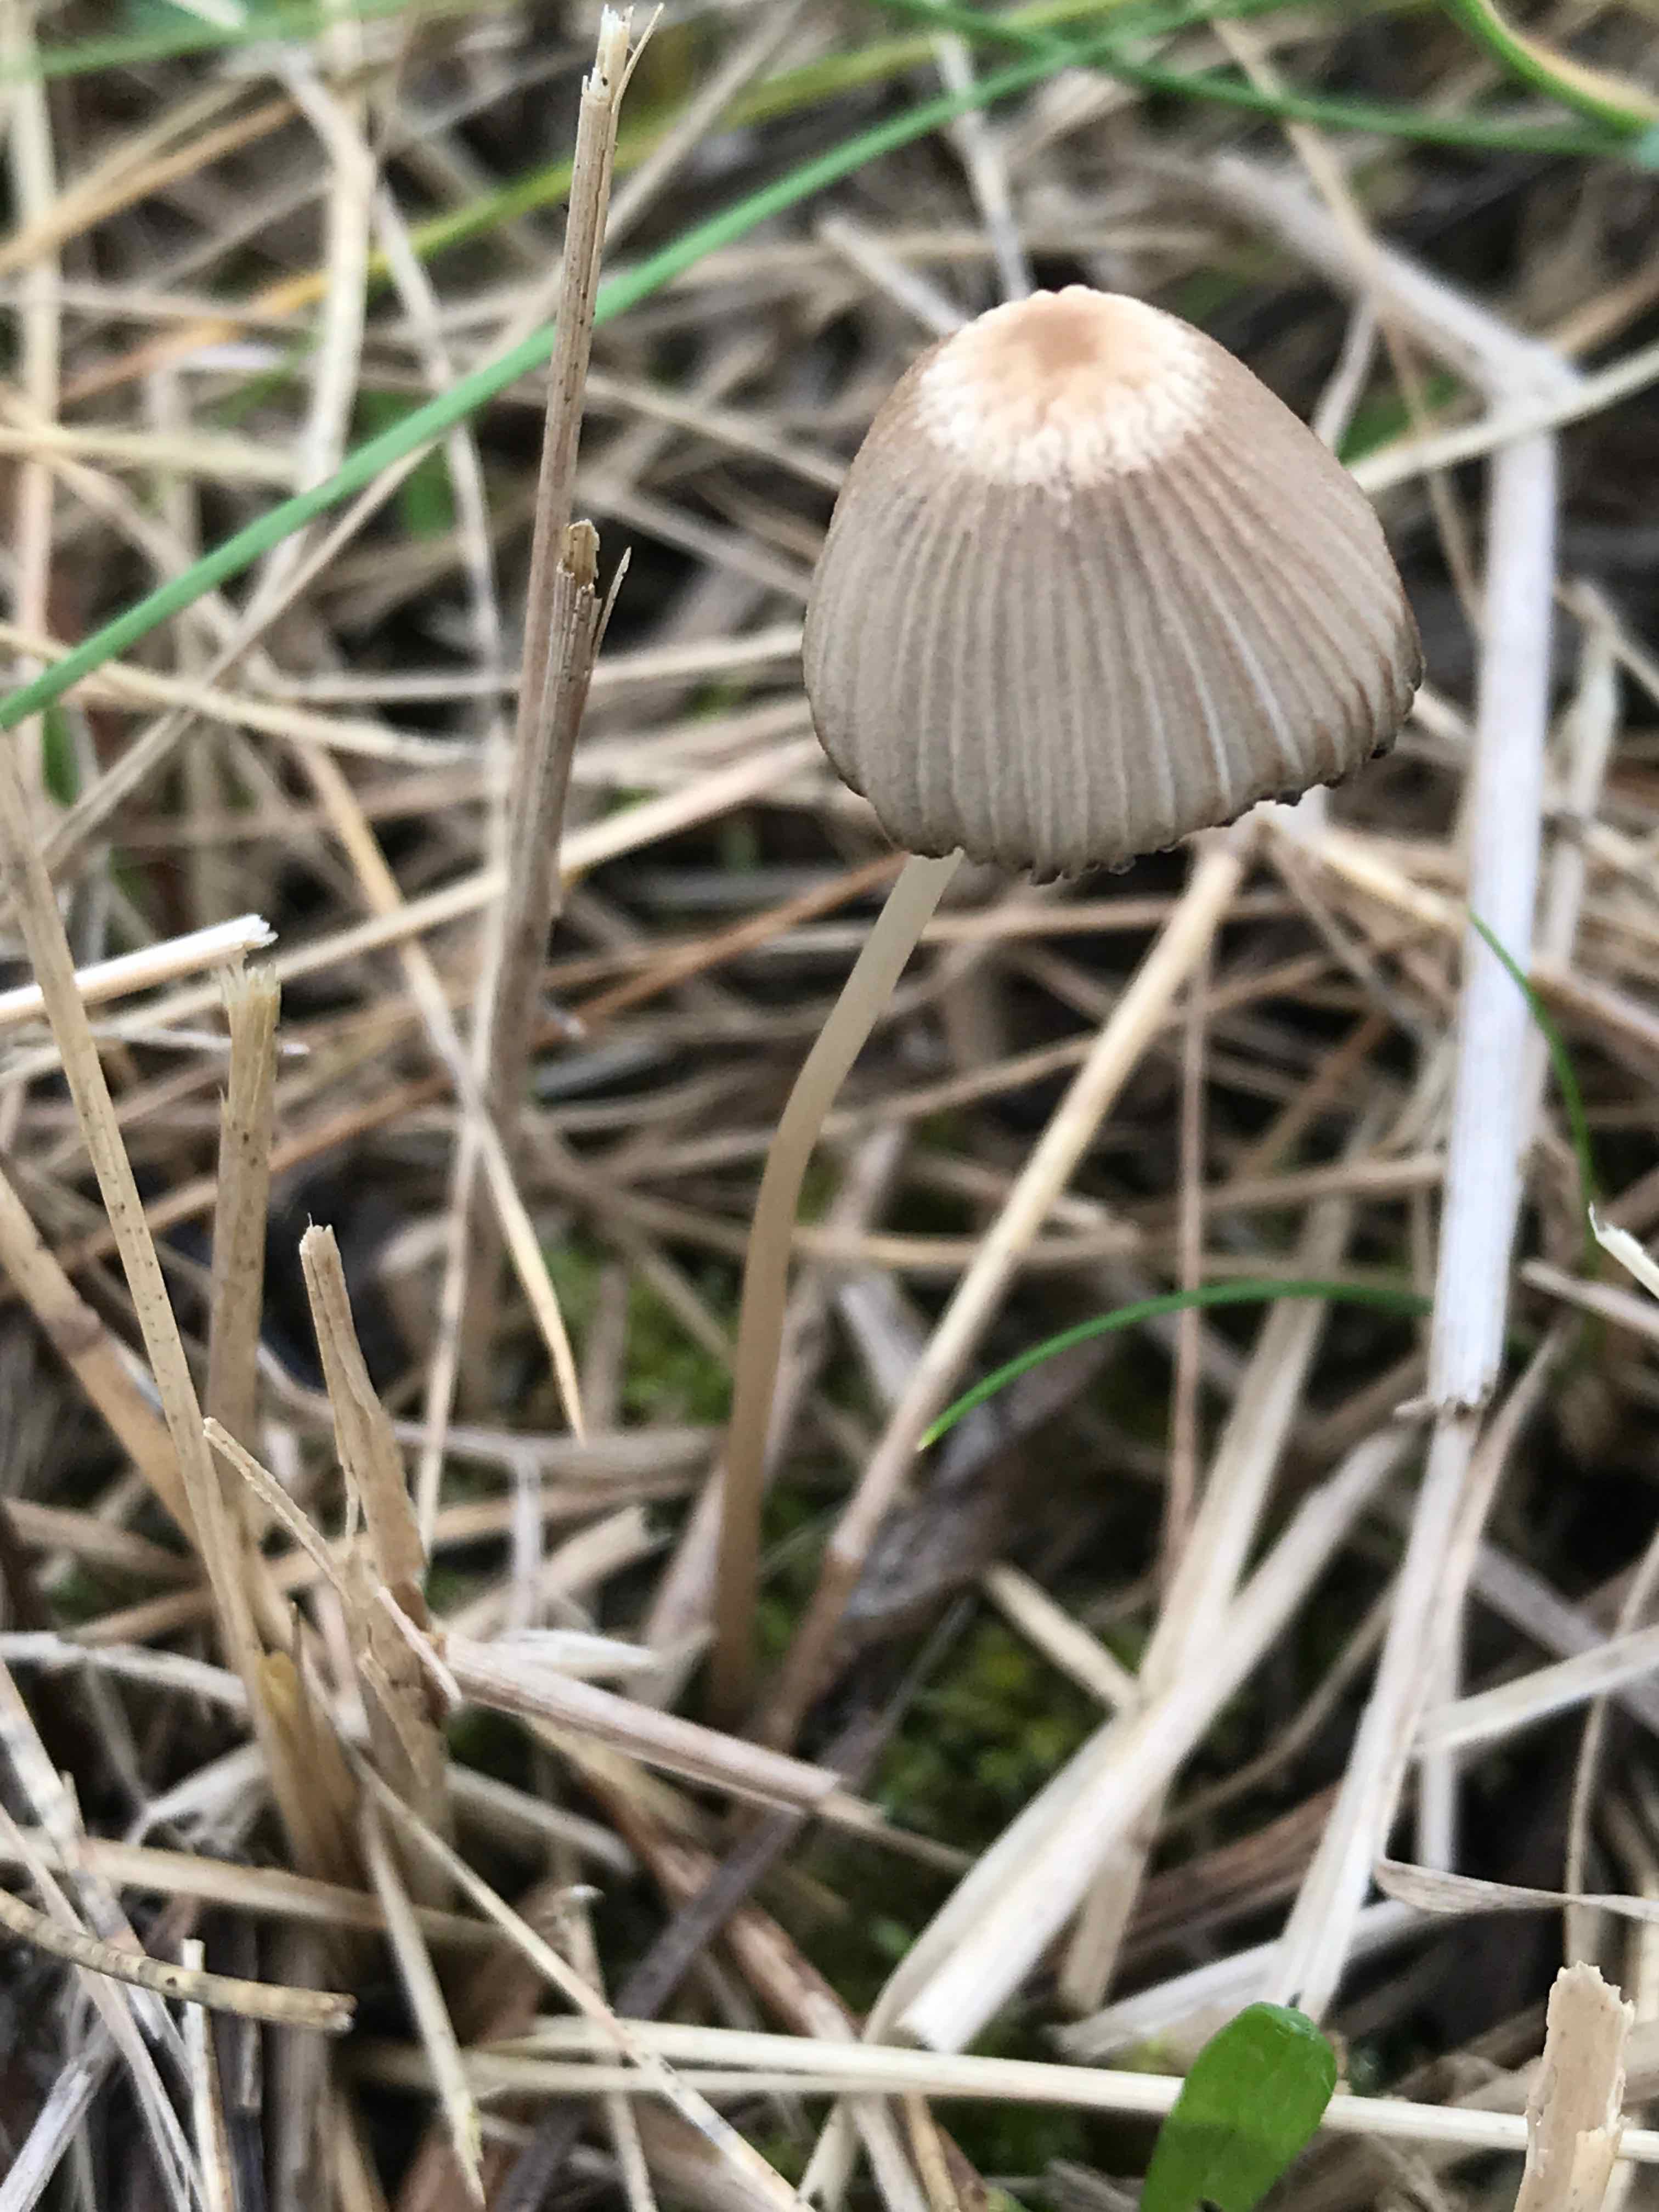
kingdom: Fungi
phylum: Basidiomycota
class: Agaricomycetes
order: Agaricales
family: Psathyrellaceae
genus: Parasola
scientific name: Parasola
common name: hjulhat
